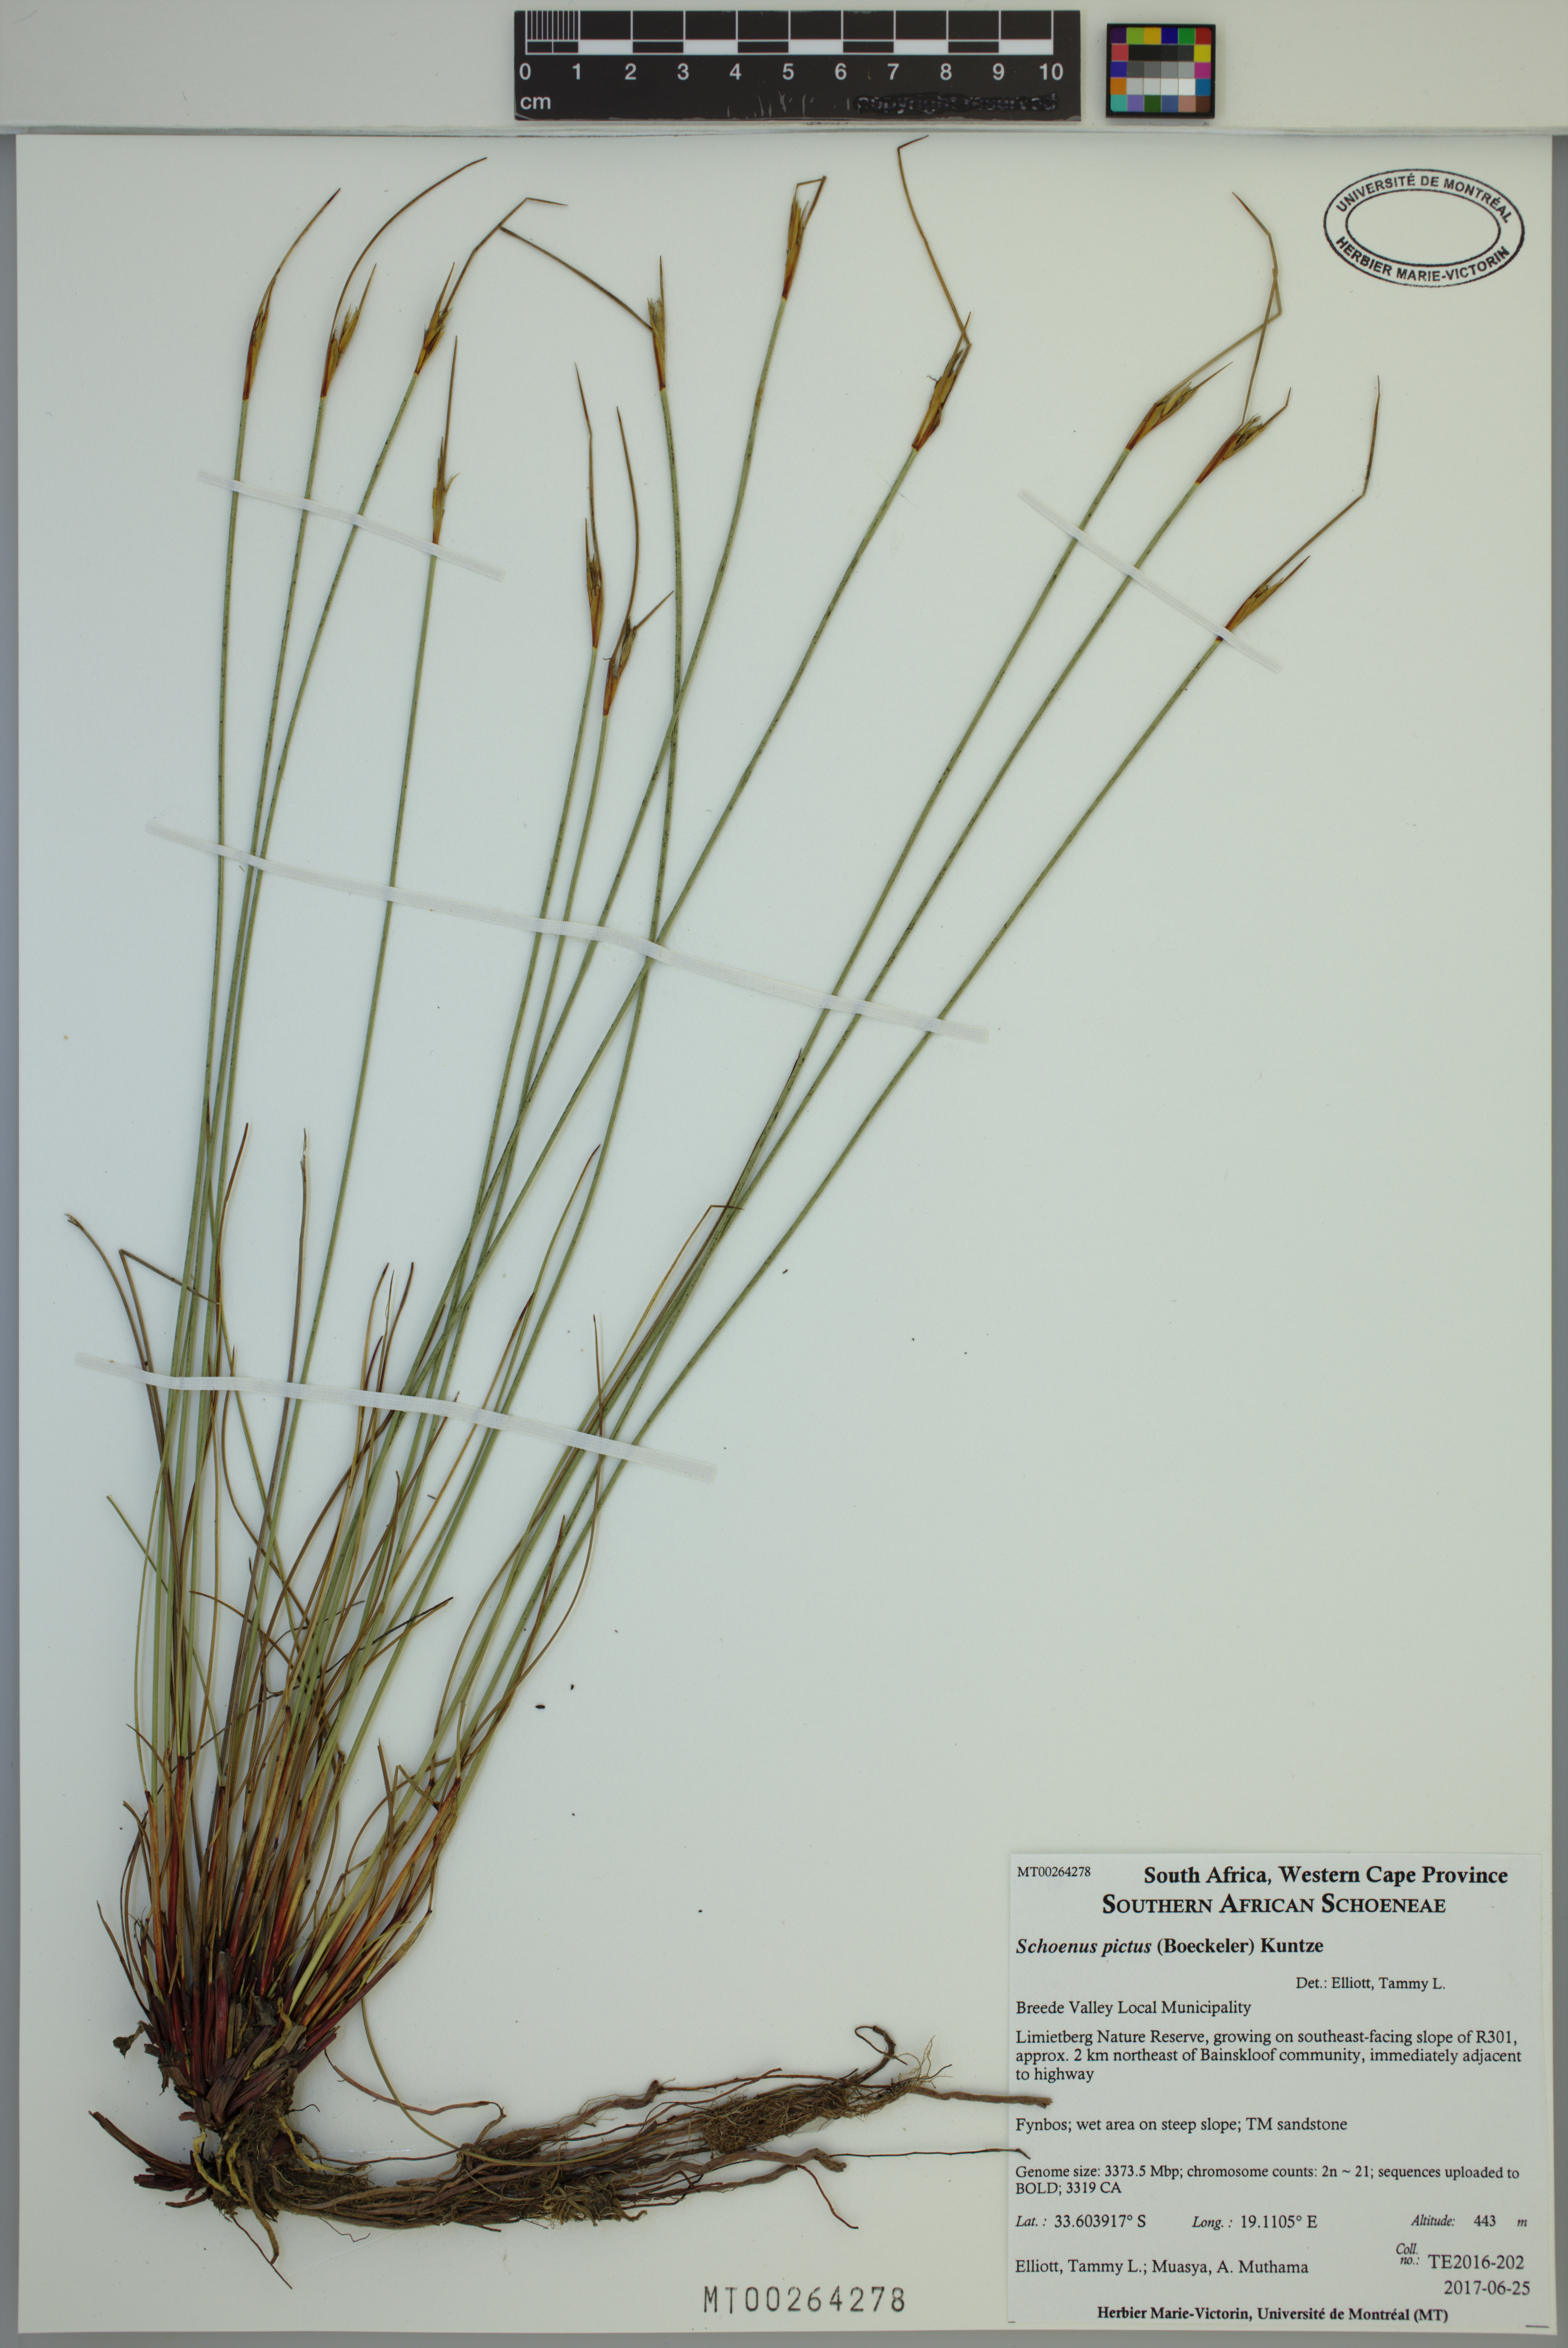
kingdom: Plantae
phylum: Tracheophyta
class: Liliopsida
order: Poales
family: Cyperaceae
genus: Schoenus
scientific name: Schoenus pictus
